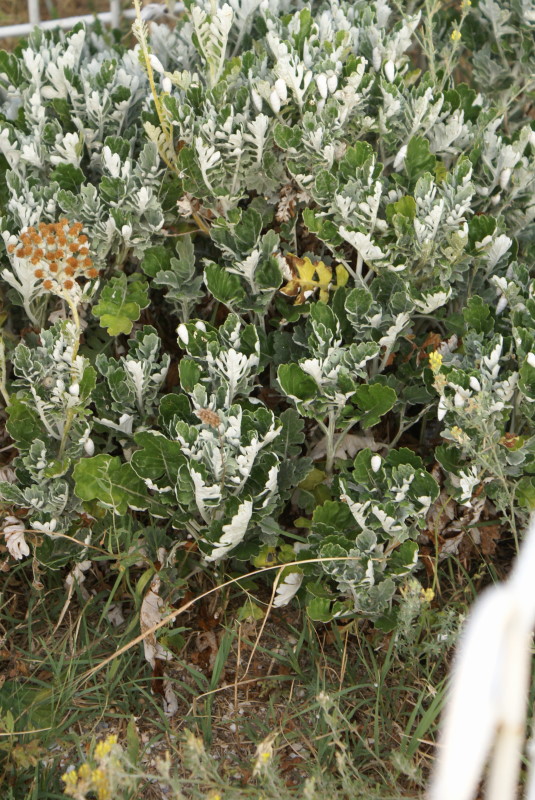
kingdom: Plantae
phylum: Tracheophyta
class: Magnoliopsida
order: Asterales
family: Asteraceae
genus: Jacobaea
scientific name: Jacobaea maritima
